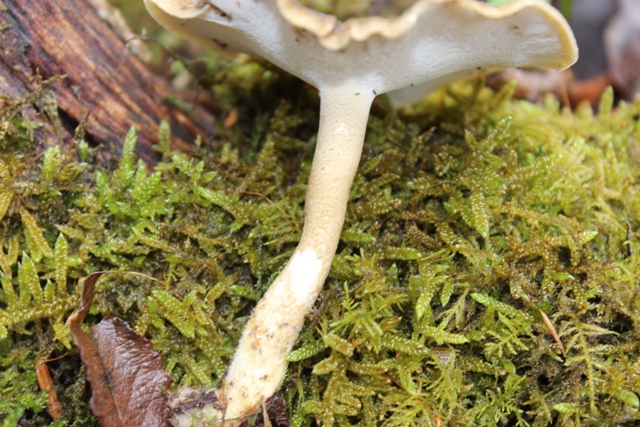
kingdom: Fungi
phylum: Basidiomycota
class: Agaricomycetes
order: Polyporales
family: Polyporaceae
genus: Lentinus
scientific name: Lentinus substrictus
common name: forårs-stilkporesvamp
